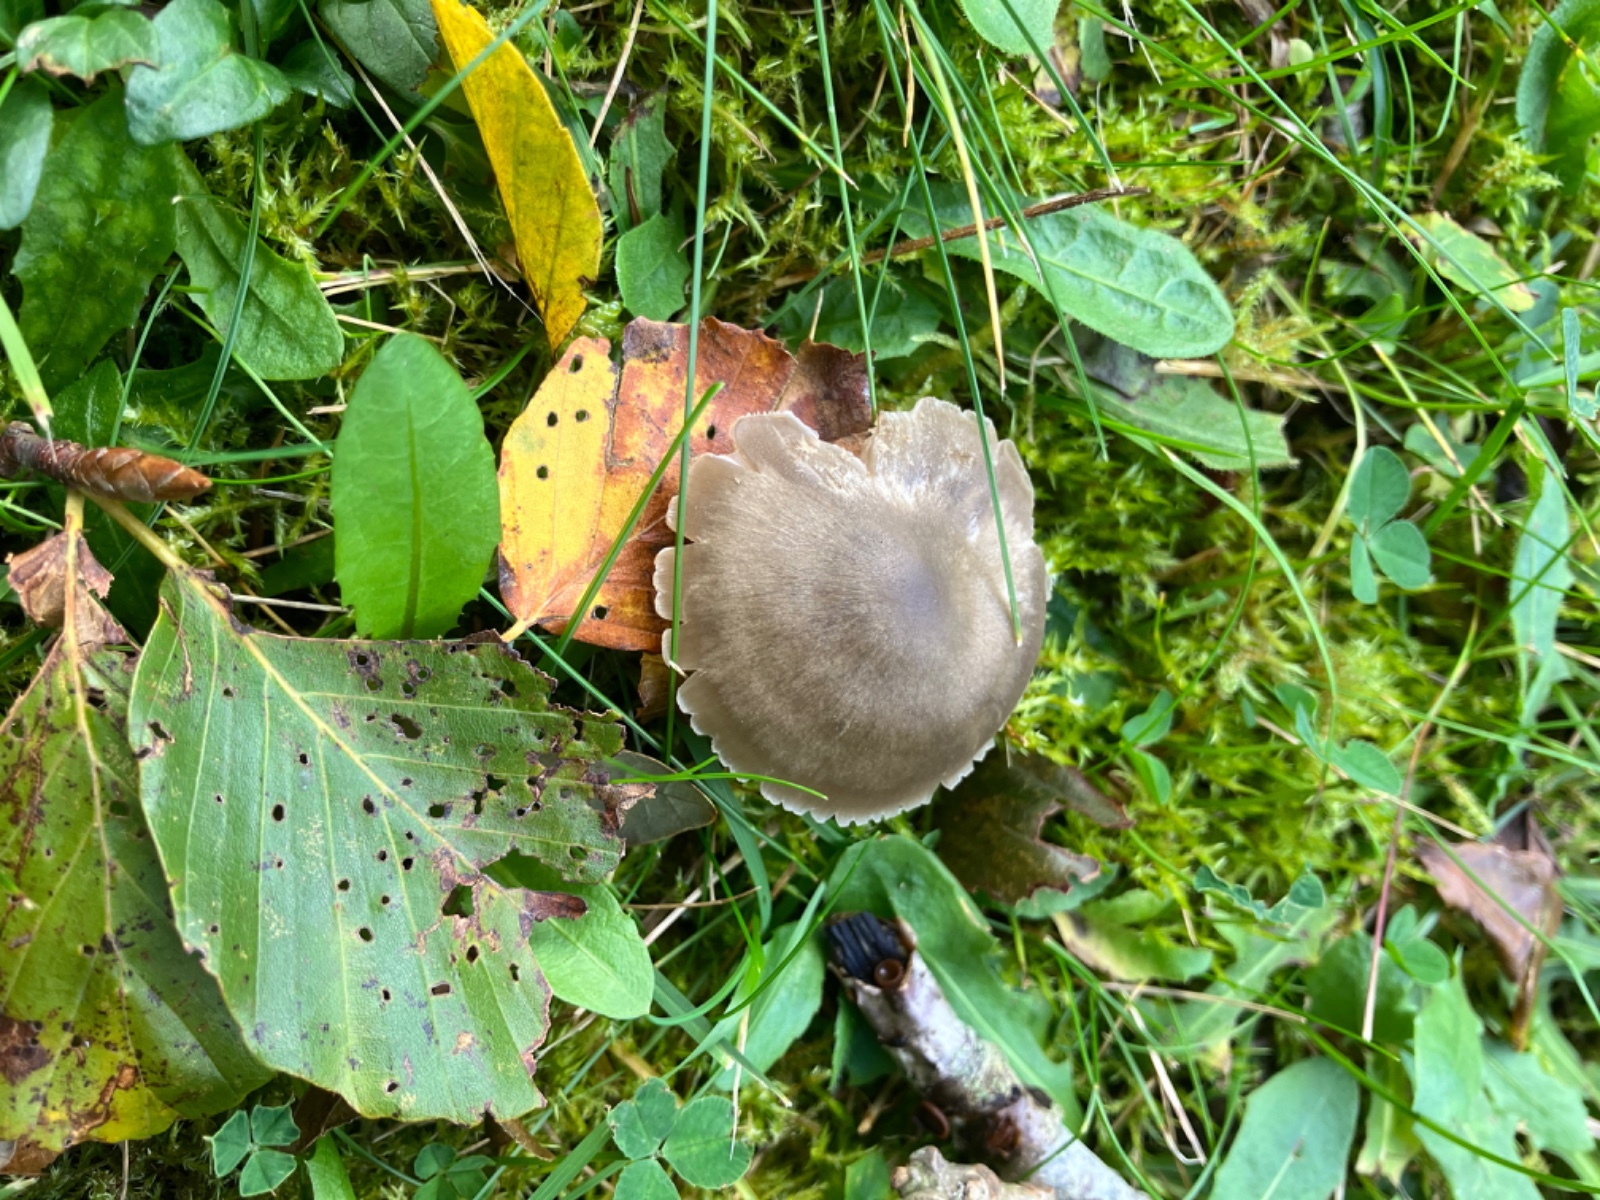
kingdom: Fungi
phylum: Basidiomycota
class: Agaricomycetes
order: Agaricales
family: Entolomataceae
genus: Entoloma
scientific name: Entoloma
